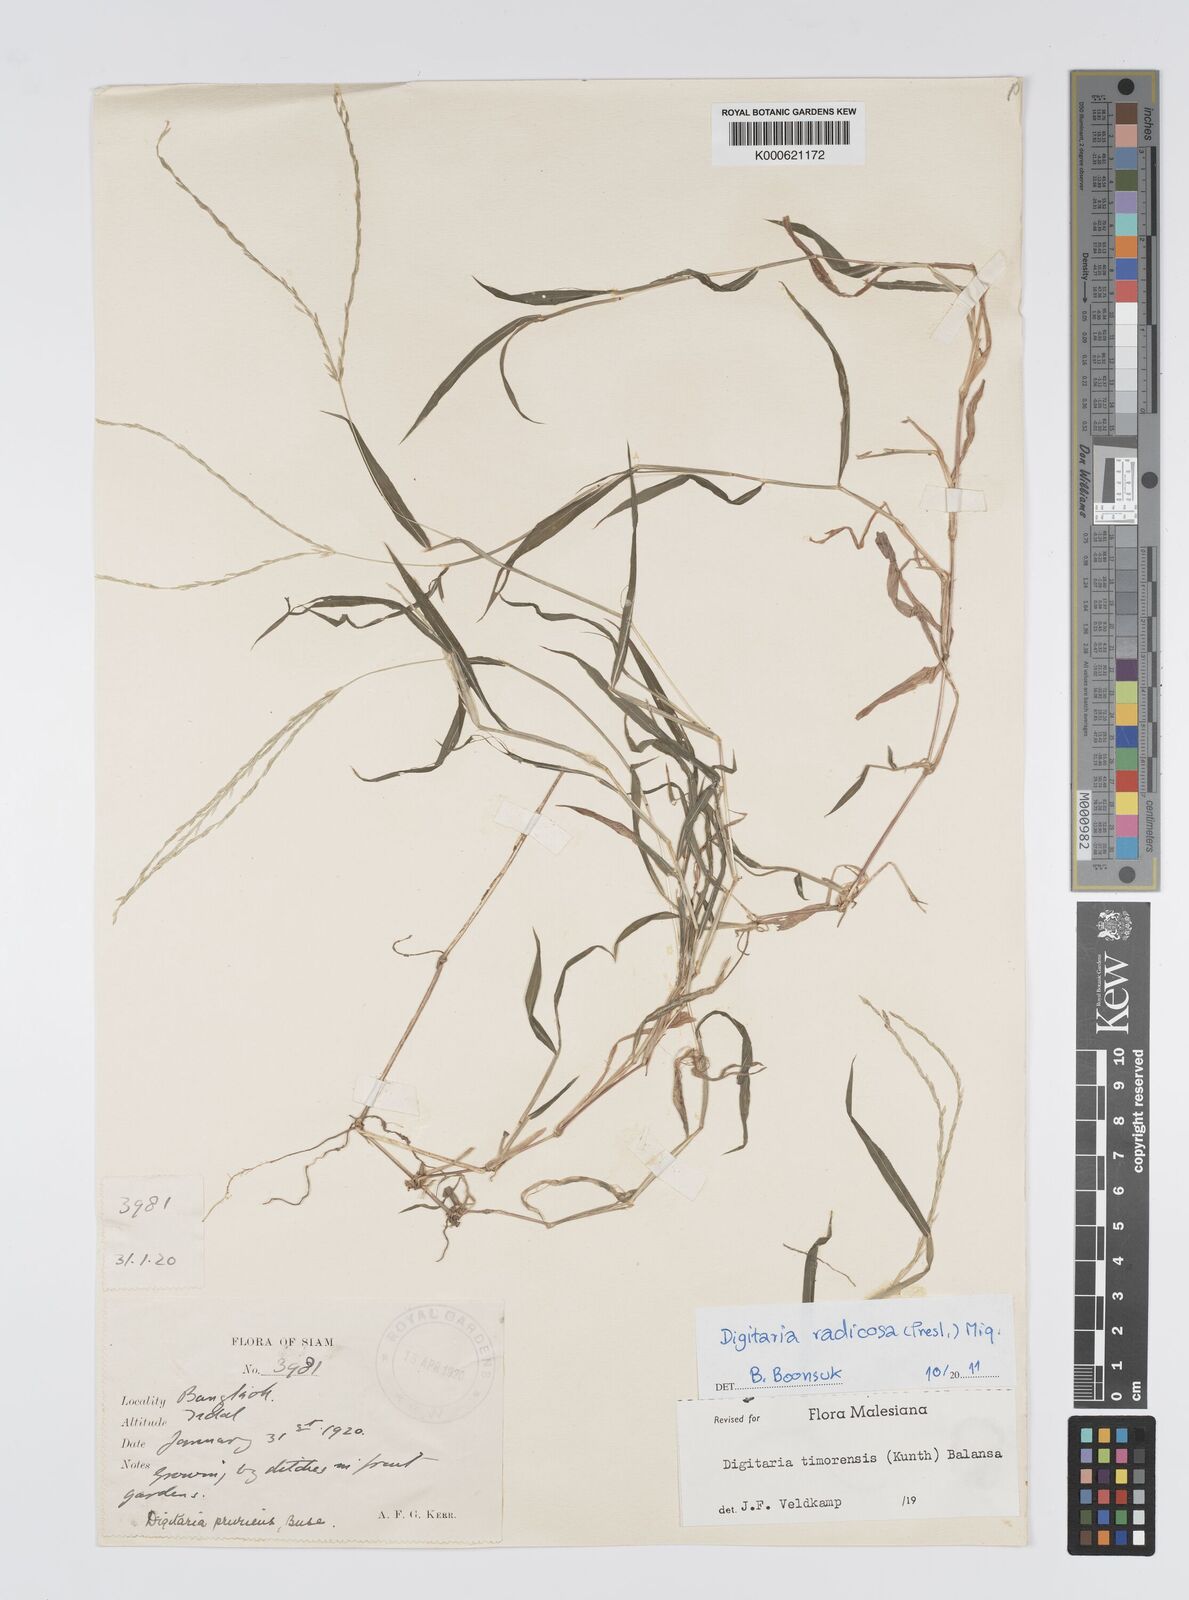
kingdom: Plantae
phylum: Tracheophyta
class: Liliopsida
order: Poales
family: Poaceae
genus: Digitaria
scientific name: Digitaria radicosa
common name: Trailing crabgrass
